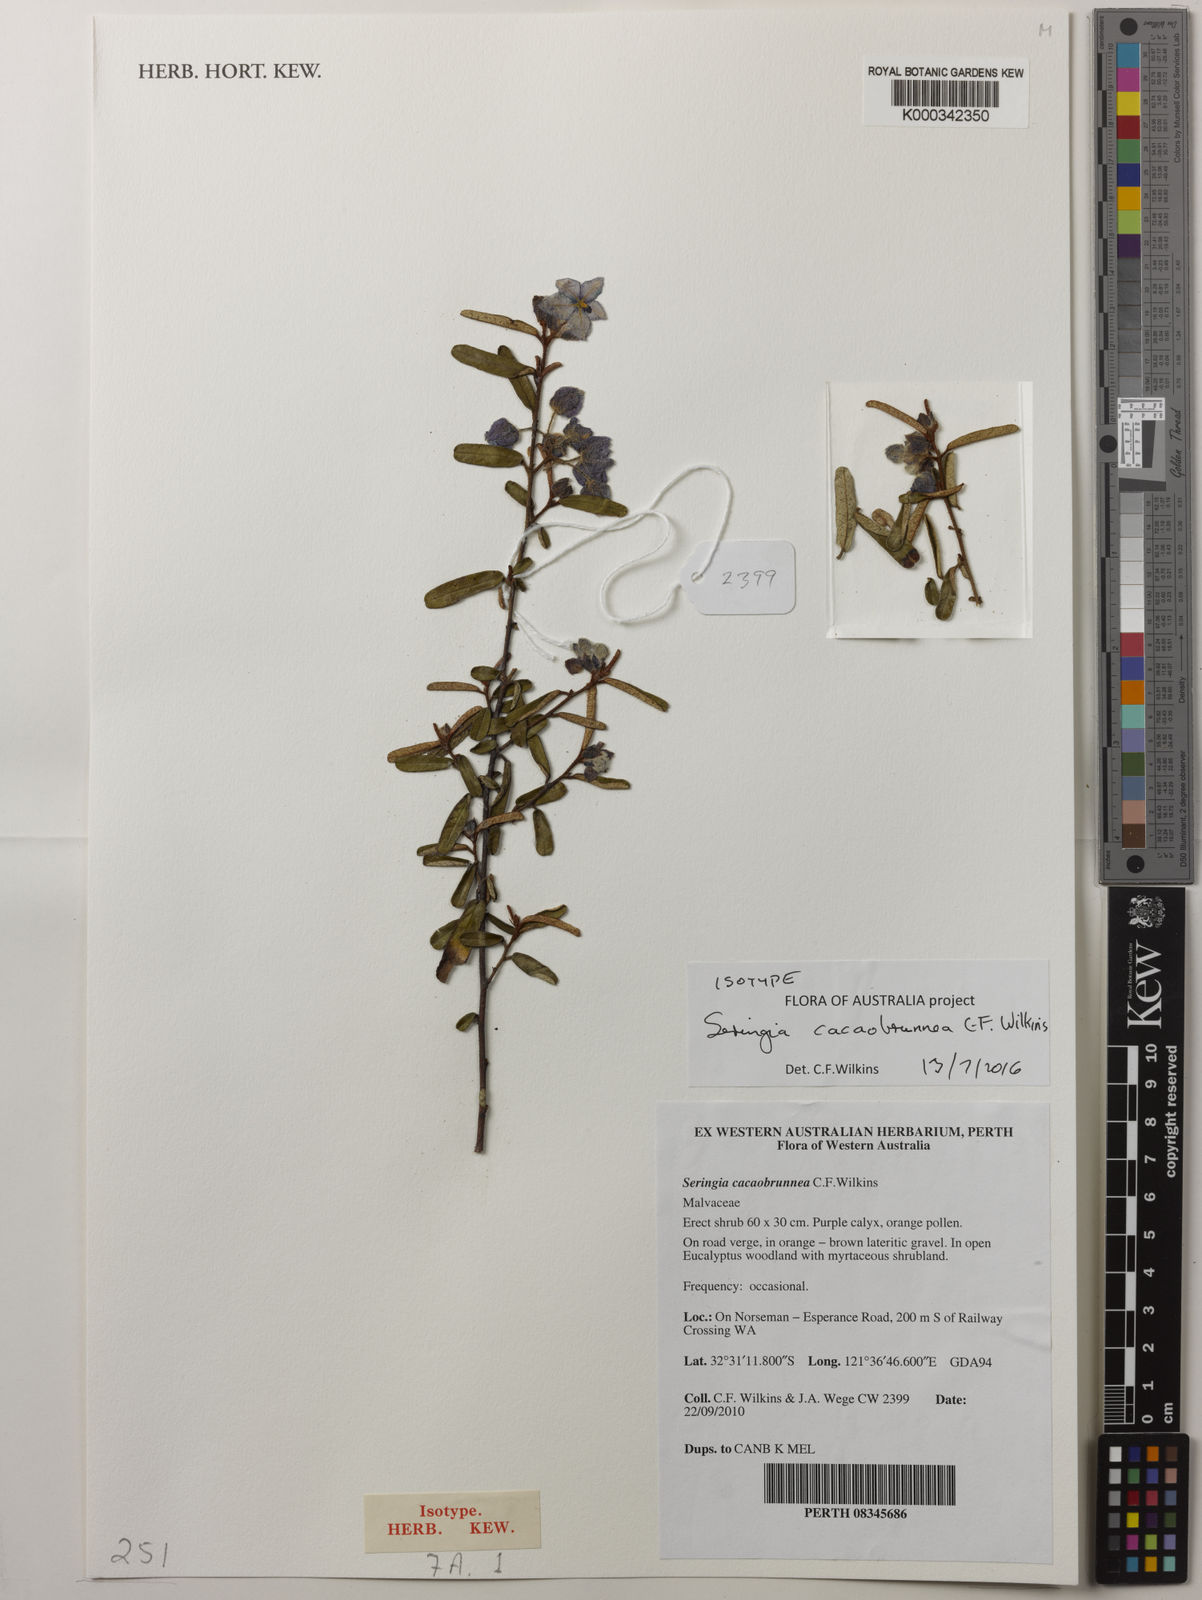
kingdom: Plantae
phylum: Tracheophyta
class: Magnoliopsida
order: Malvales
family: Malvaceae
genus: Seringia
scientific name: Seringia cacaobrunnea
